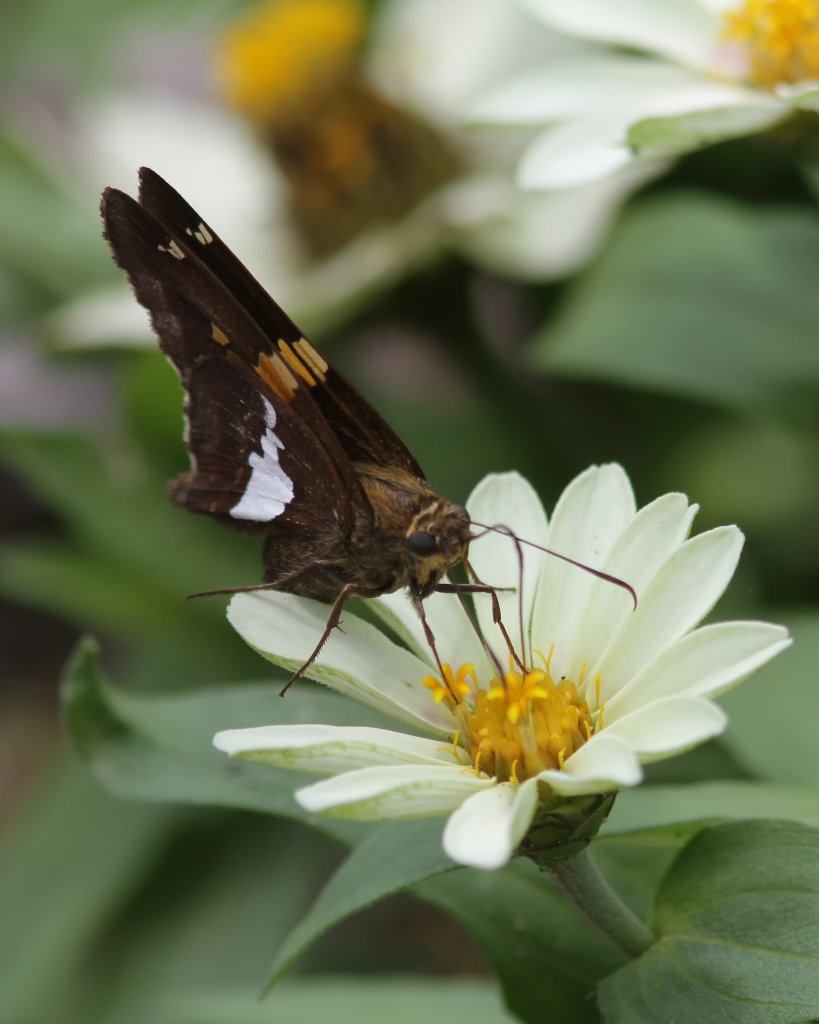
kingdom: Animalia
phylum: Arthropoda
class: Insecta
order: Lepidoptera
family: Hesperiidae
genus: Epargyreus
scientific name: Epargyreus clarus
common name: Silver-spotted Skipper
